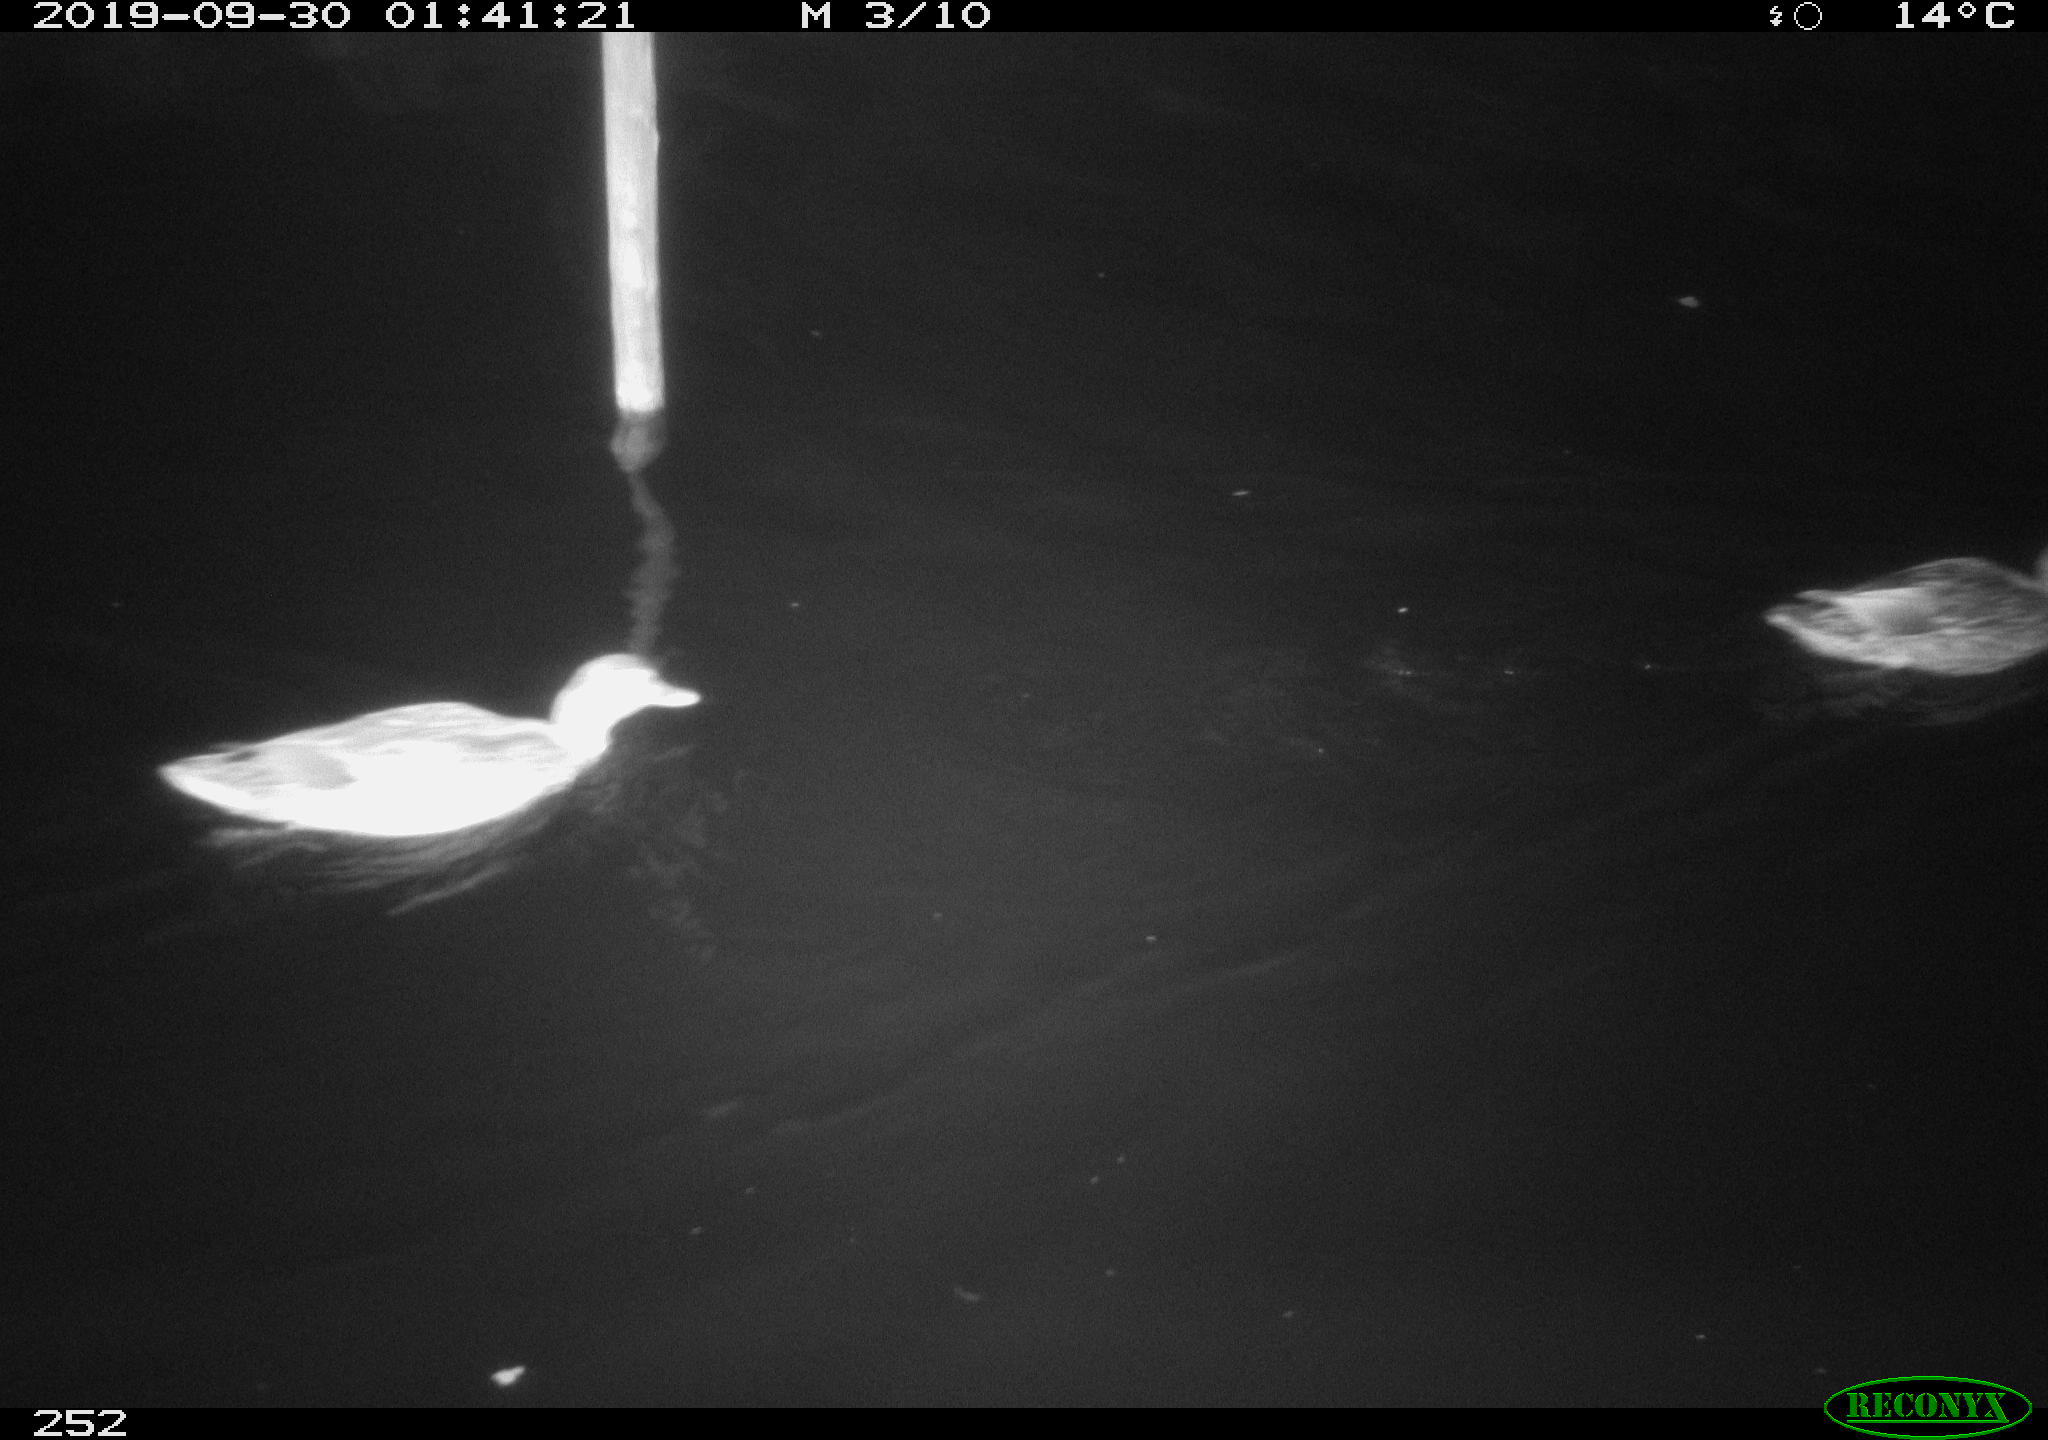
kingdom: Animalia
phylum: Chordata
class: Aves
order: Anseriformes
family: Anatidae
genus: Anas
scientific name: Anas platyrhynchos
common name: Mallard
